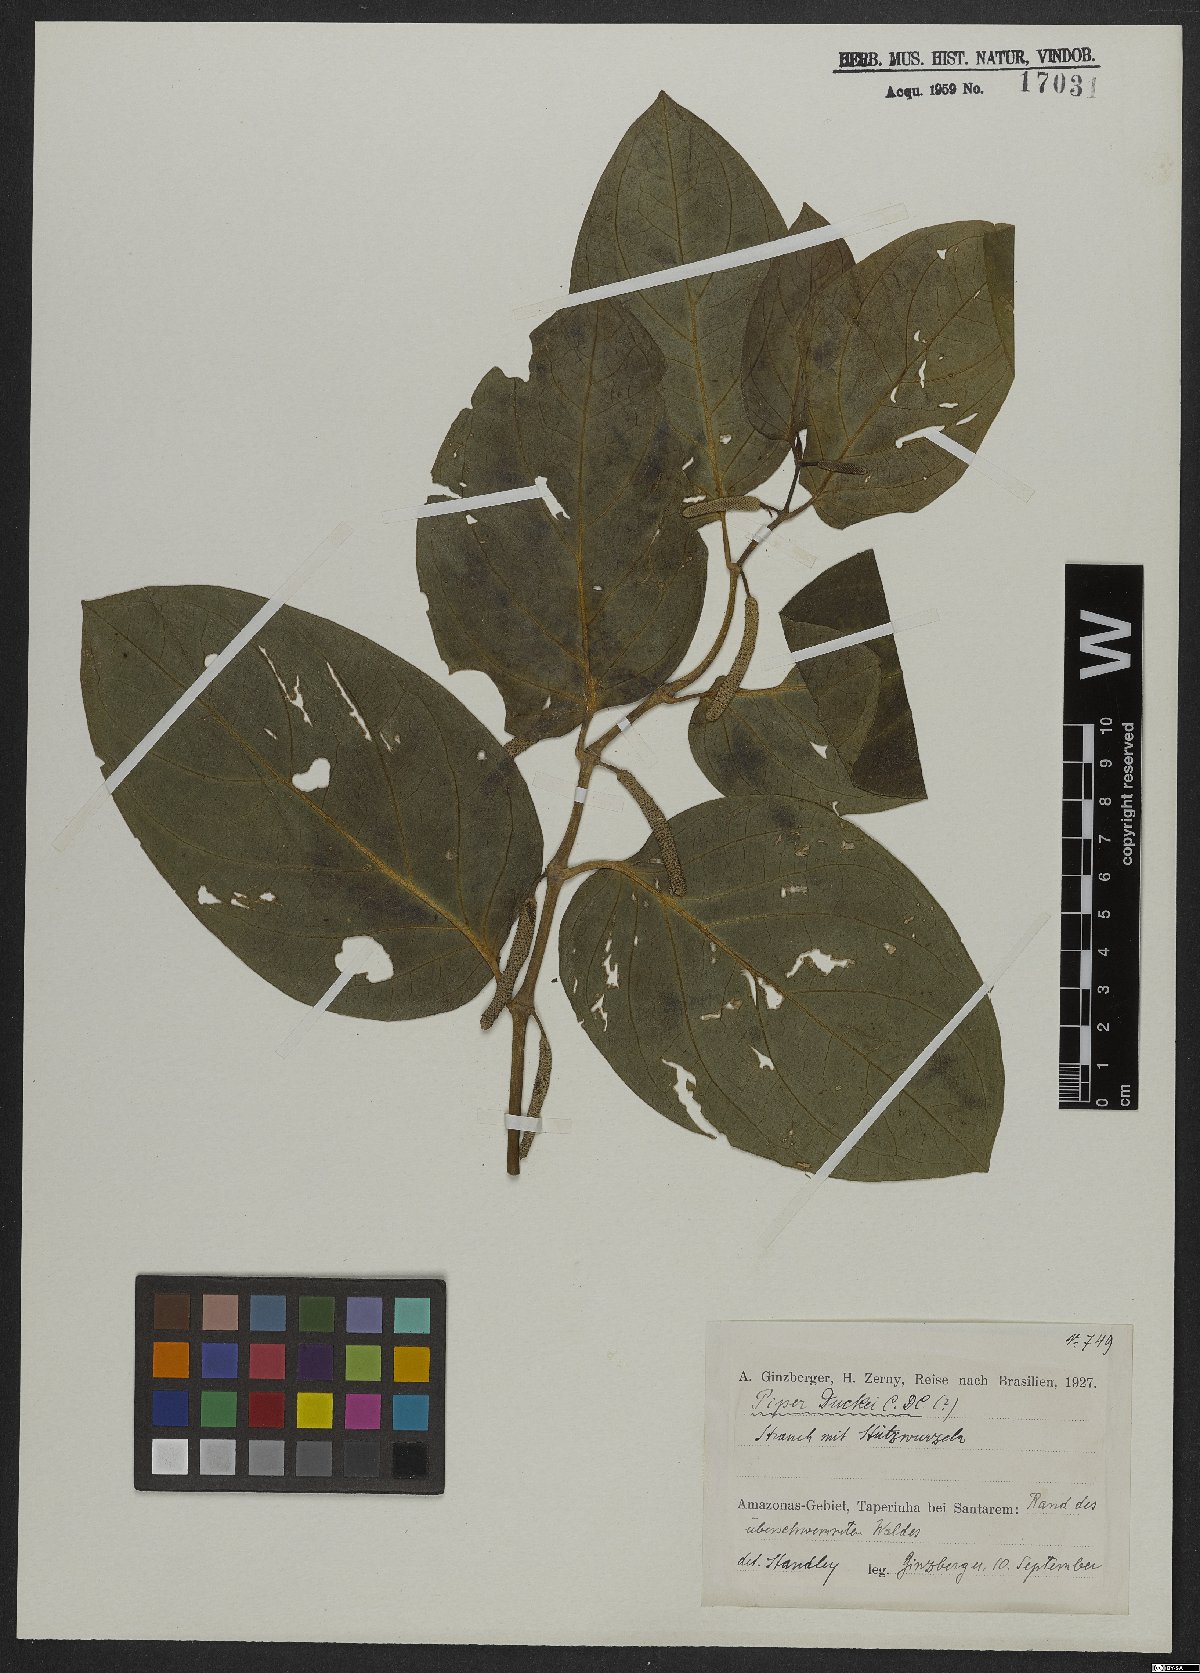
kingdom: Plantae
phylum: Tracheophyta
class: Magnoliopsida
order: Piperales
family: Piperaceae
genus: Piper
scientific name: Piper duckei
